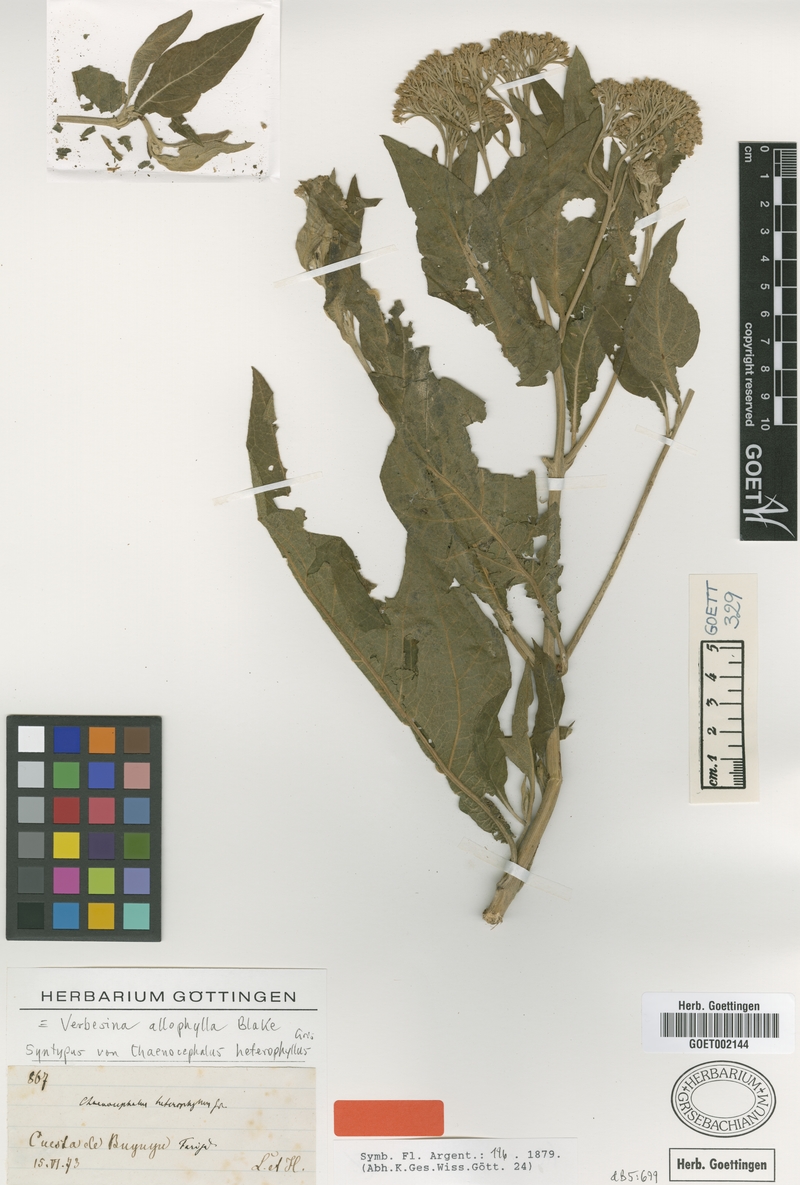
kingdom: Plantae
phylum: Tracheophyta
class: Magnoliopsida
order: Asterales
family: Asteraceae
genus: Verbesina
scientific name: Verbesina allophylla
